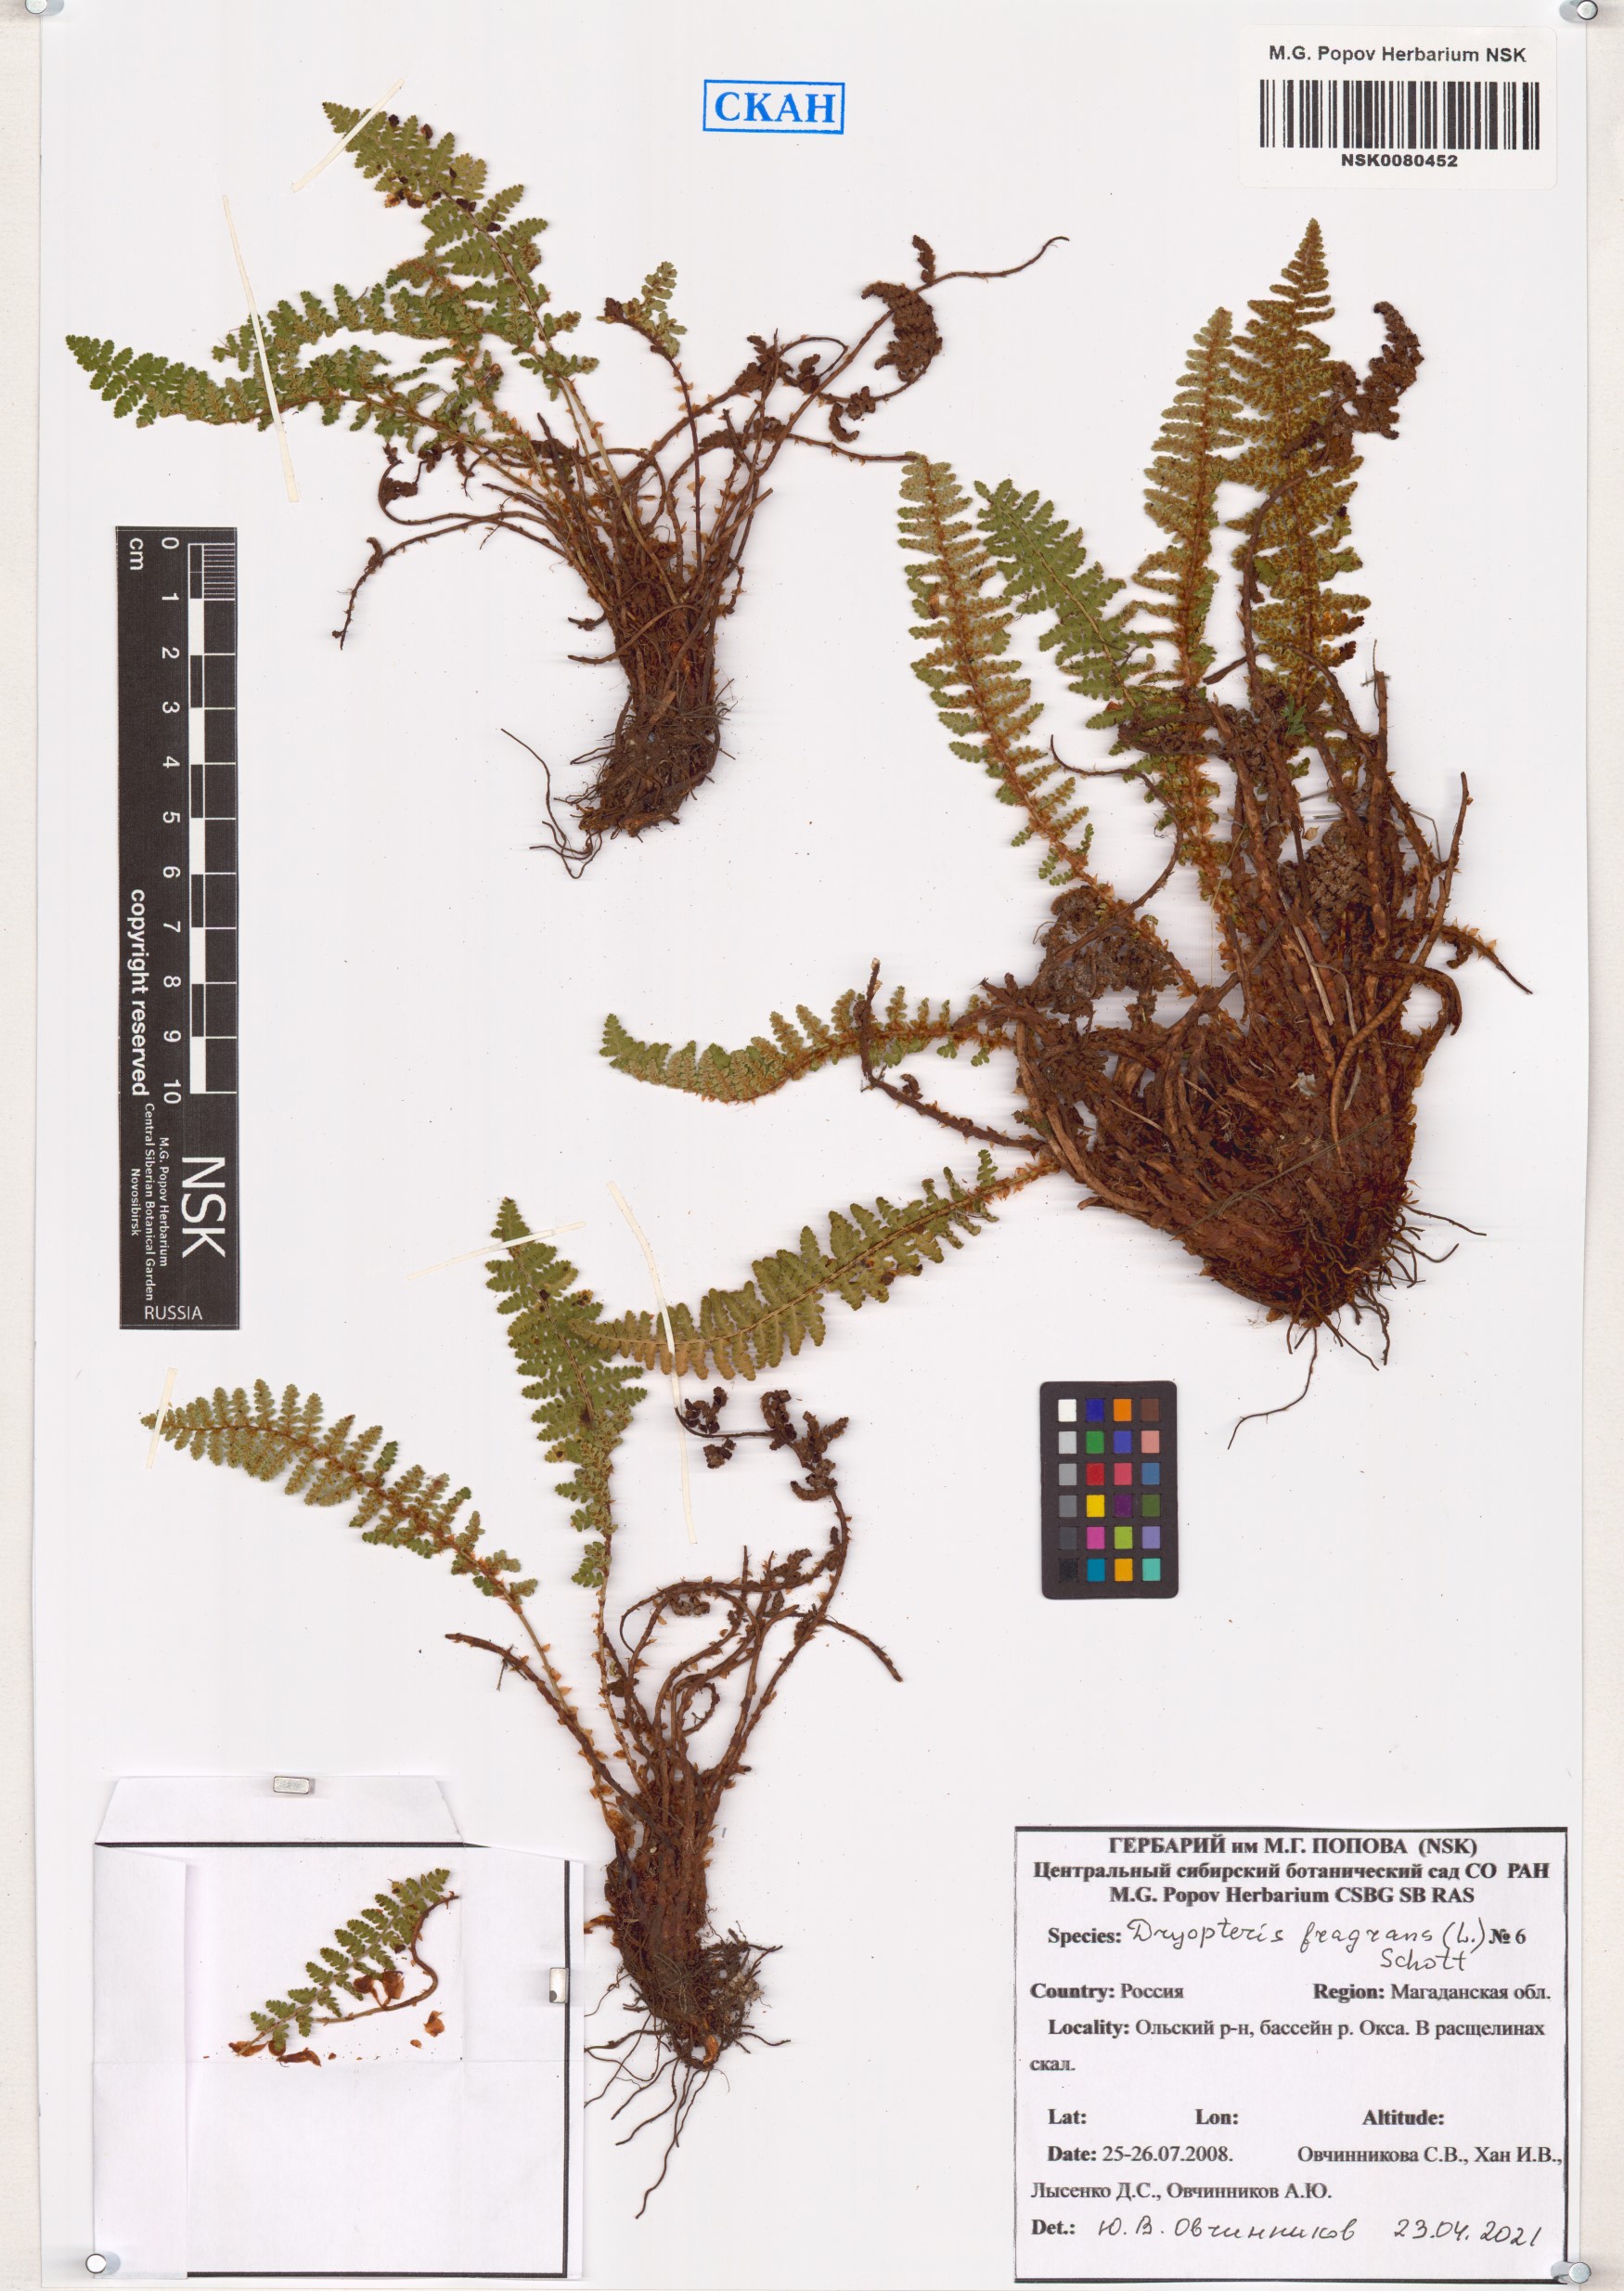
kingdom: Plantae
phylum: Tracheophyta
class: Polypodiopsida
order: Polypodiales
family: Dryopteridaceae
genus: Dryopteris
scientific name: Dryopteris fragrans
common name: Fragrant wood fern
